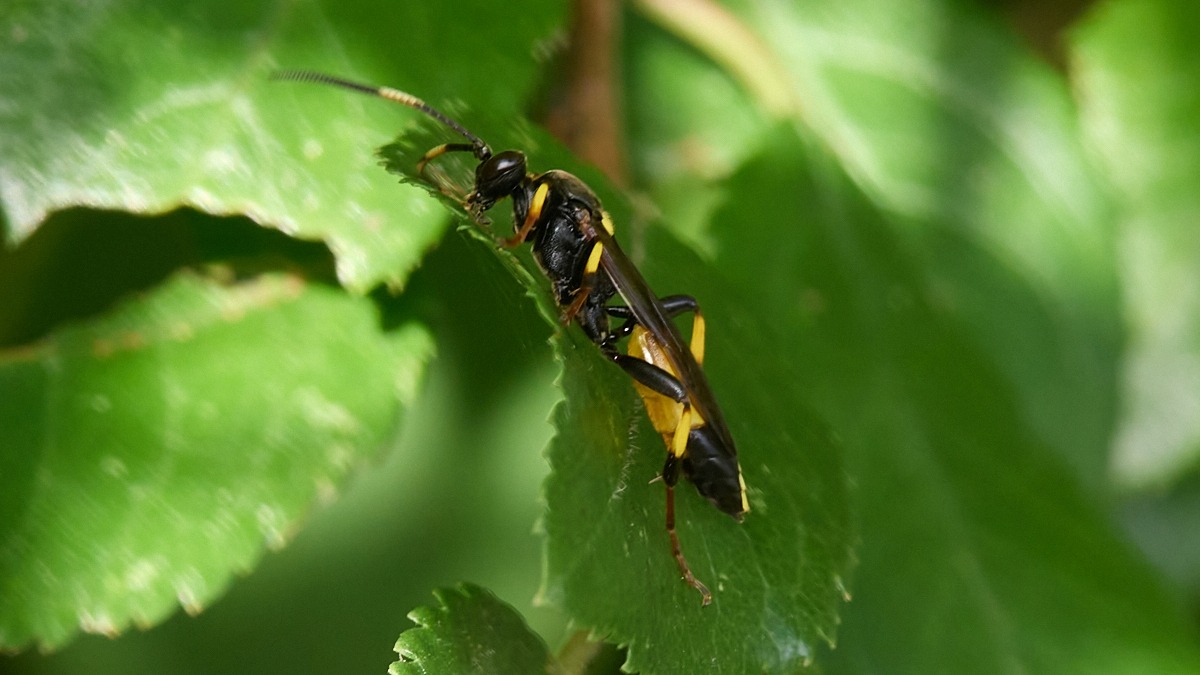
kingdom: Animalia
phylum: Arthropoda
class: Insecta
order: Hymenoptera
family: Ichneumonidae
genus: Ichneumon
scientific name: Ichneumon stramentor
